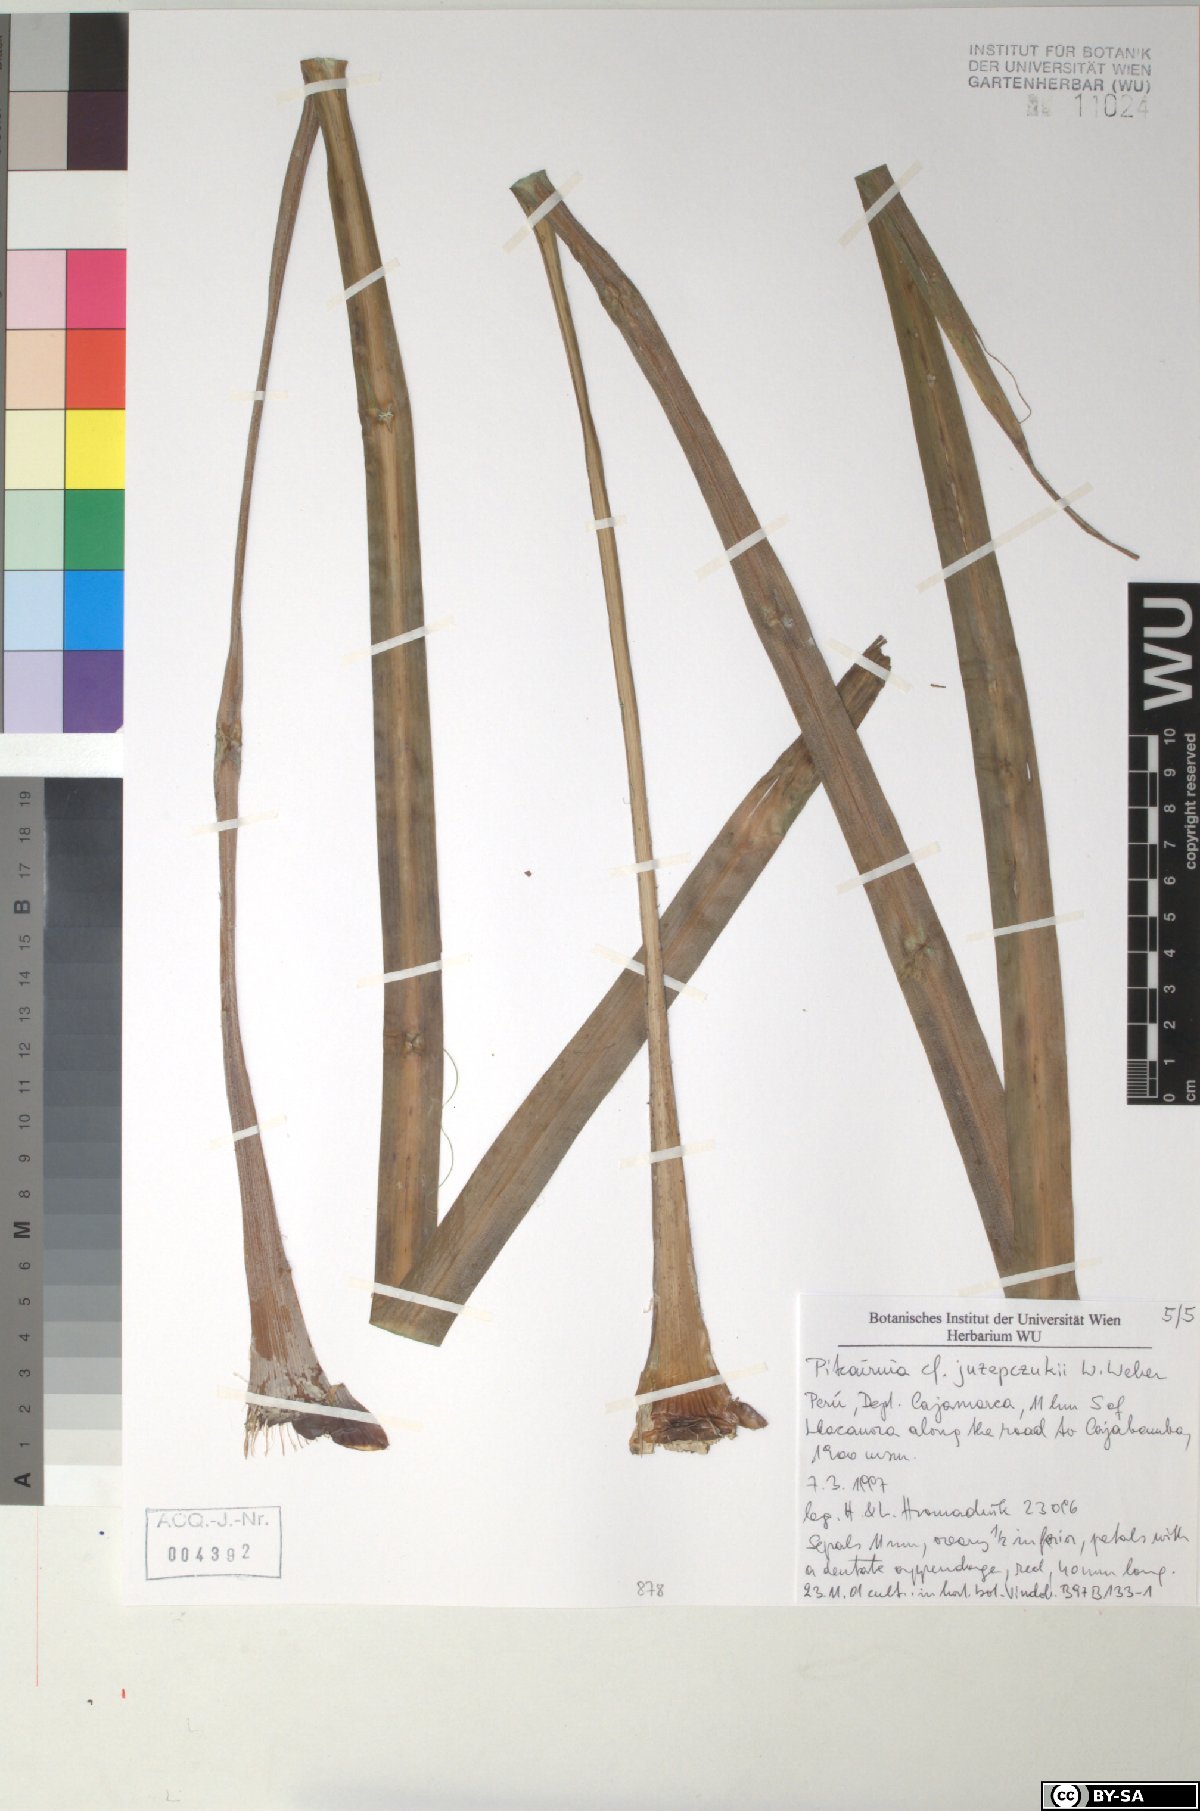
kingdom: Plantae
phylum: Tracheophyta
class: Liliopsida
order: Poales
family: Bromeliaceae
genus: Pitcairnia
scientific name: Pitcairnia juzepczukii
